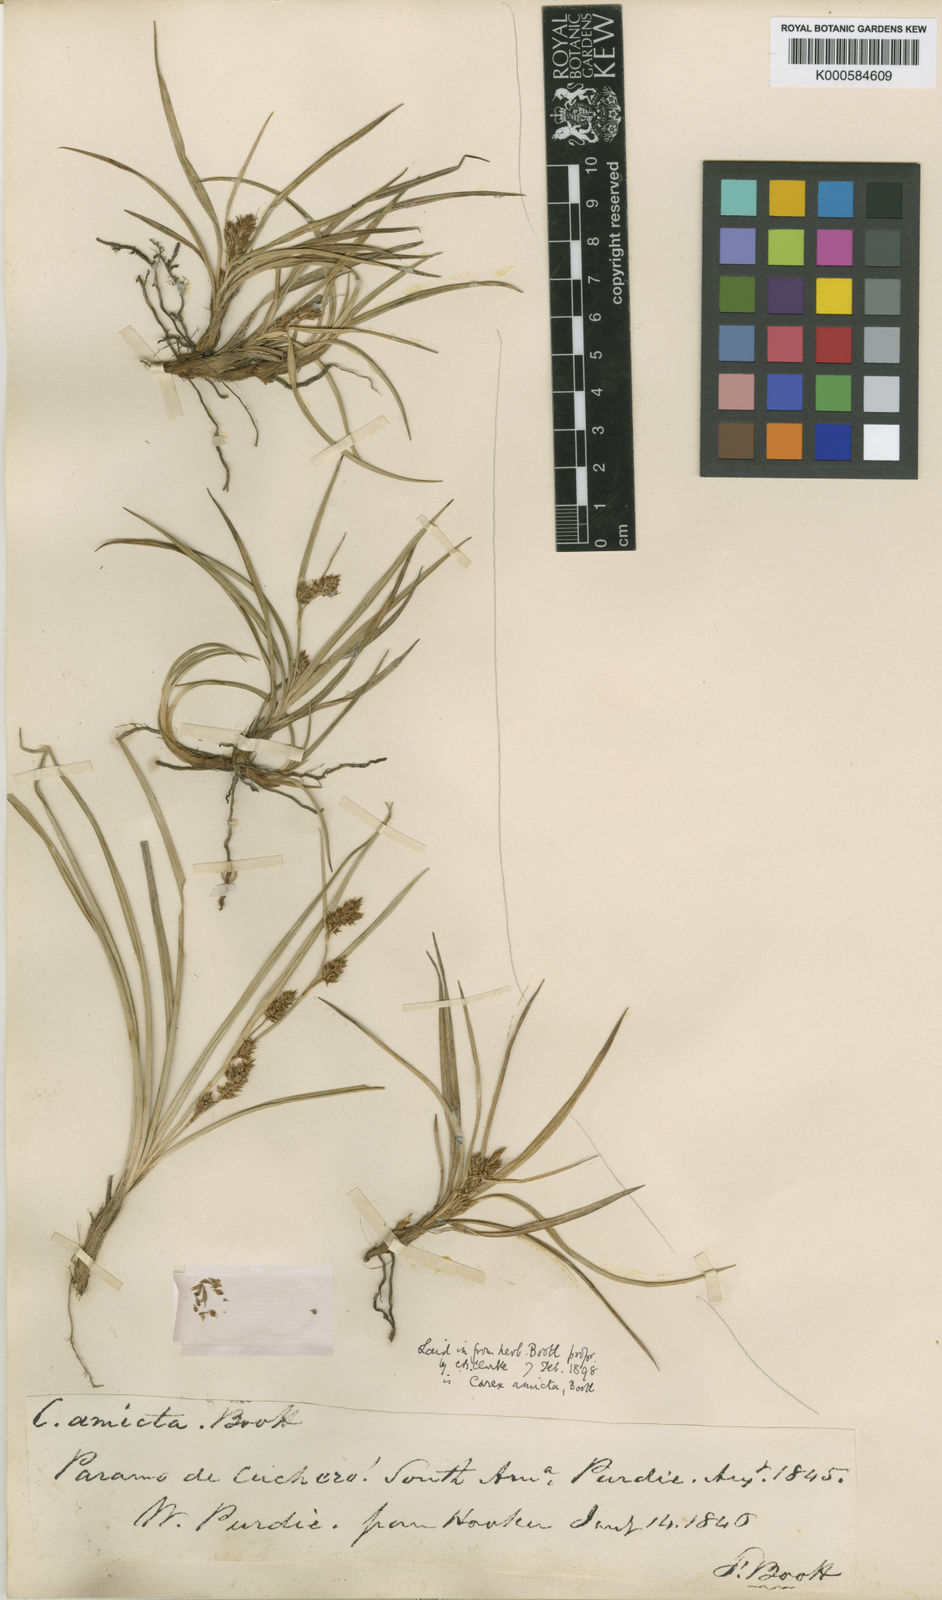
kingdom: Plantae
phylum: Tracheophyta
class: Liliopsida
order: Poales
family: Cyperaceae
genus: Carex
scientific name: Carex amicta
